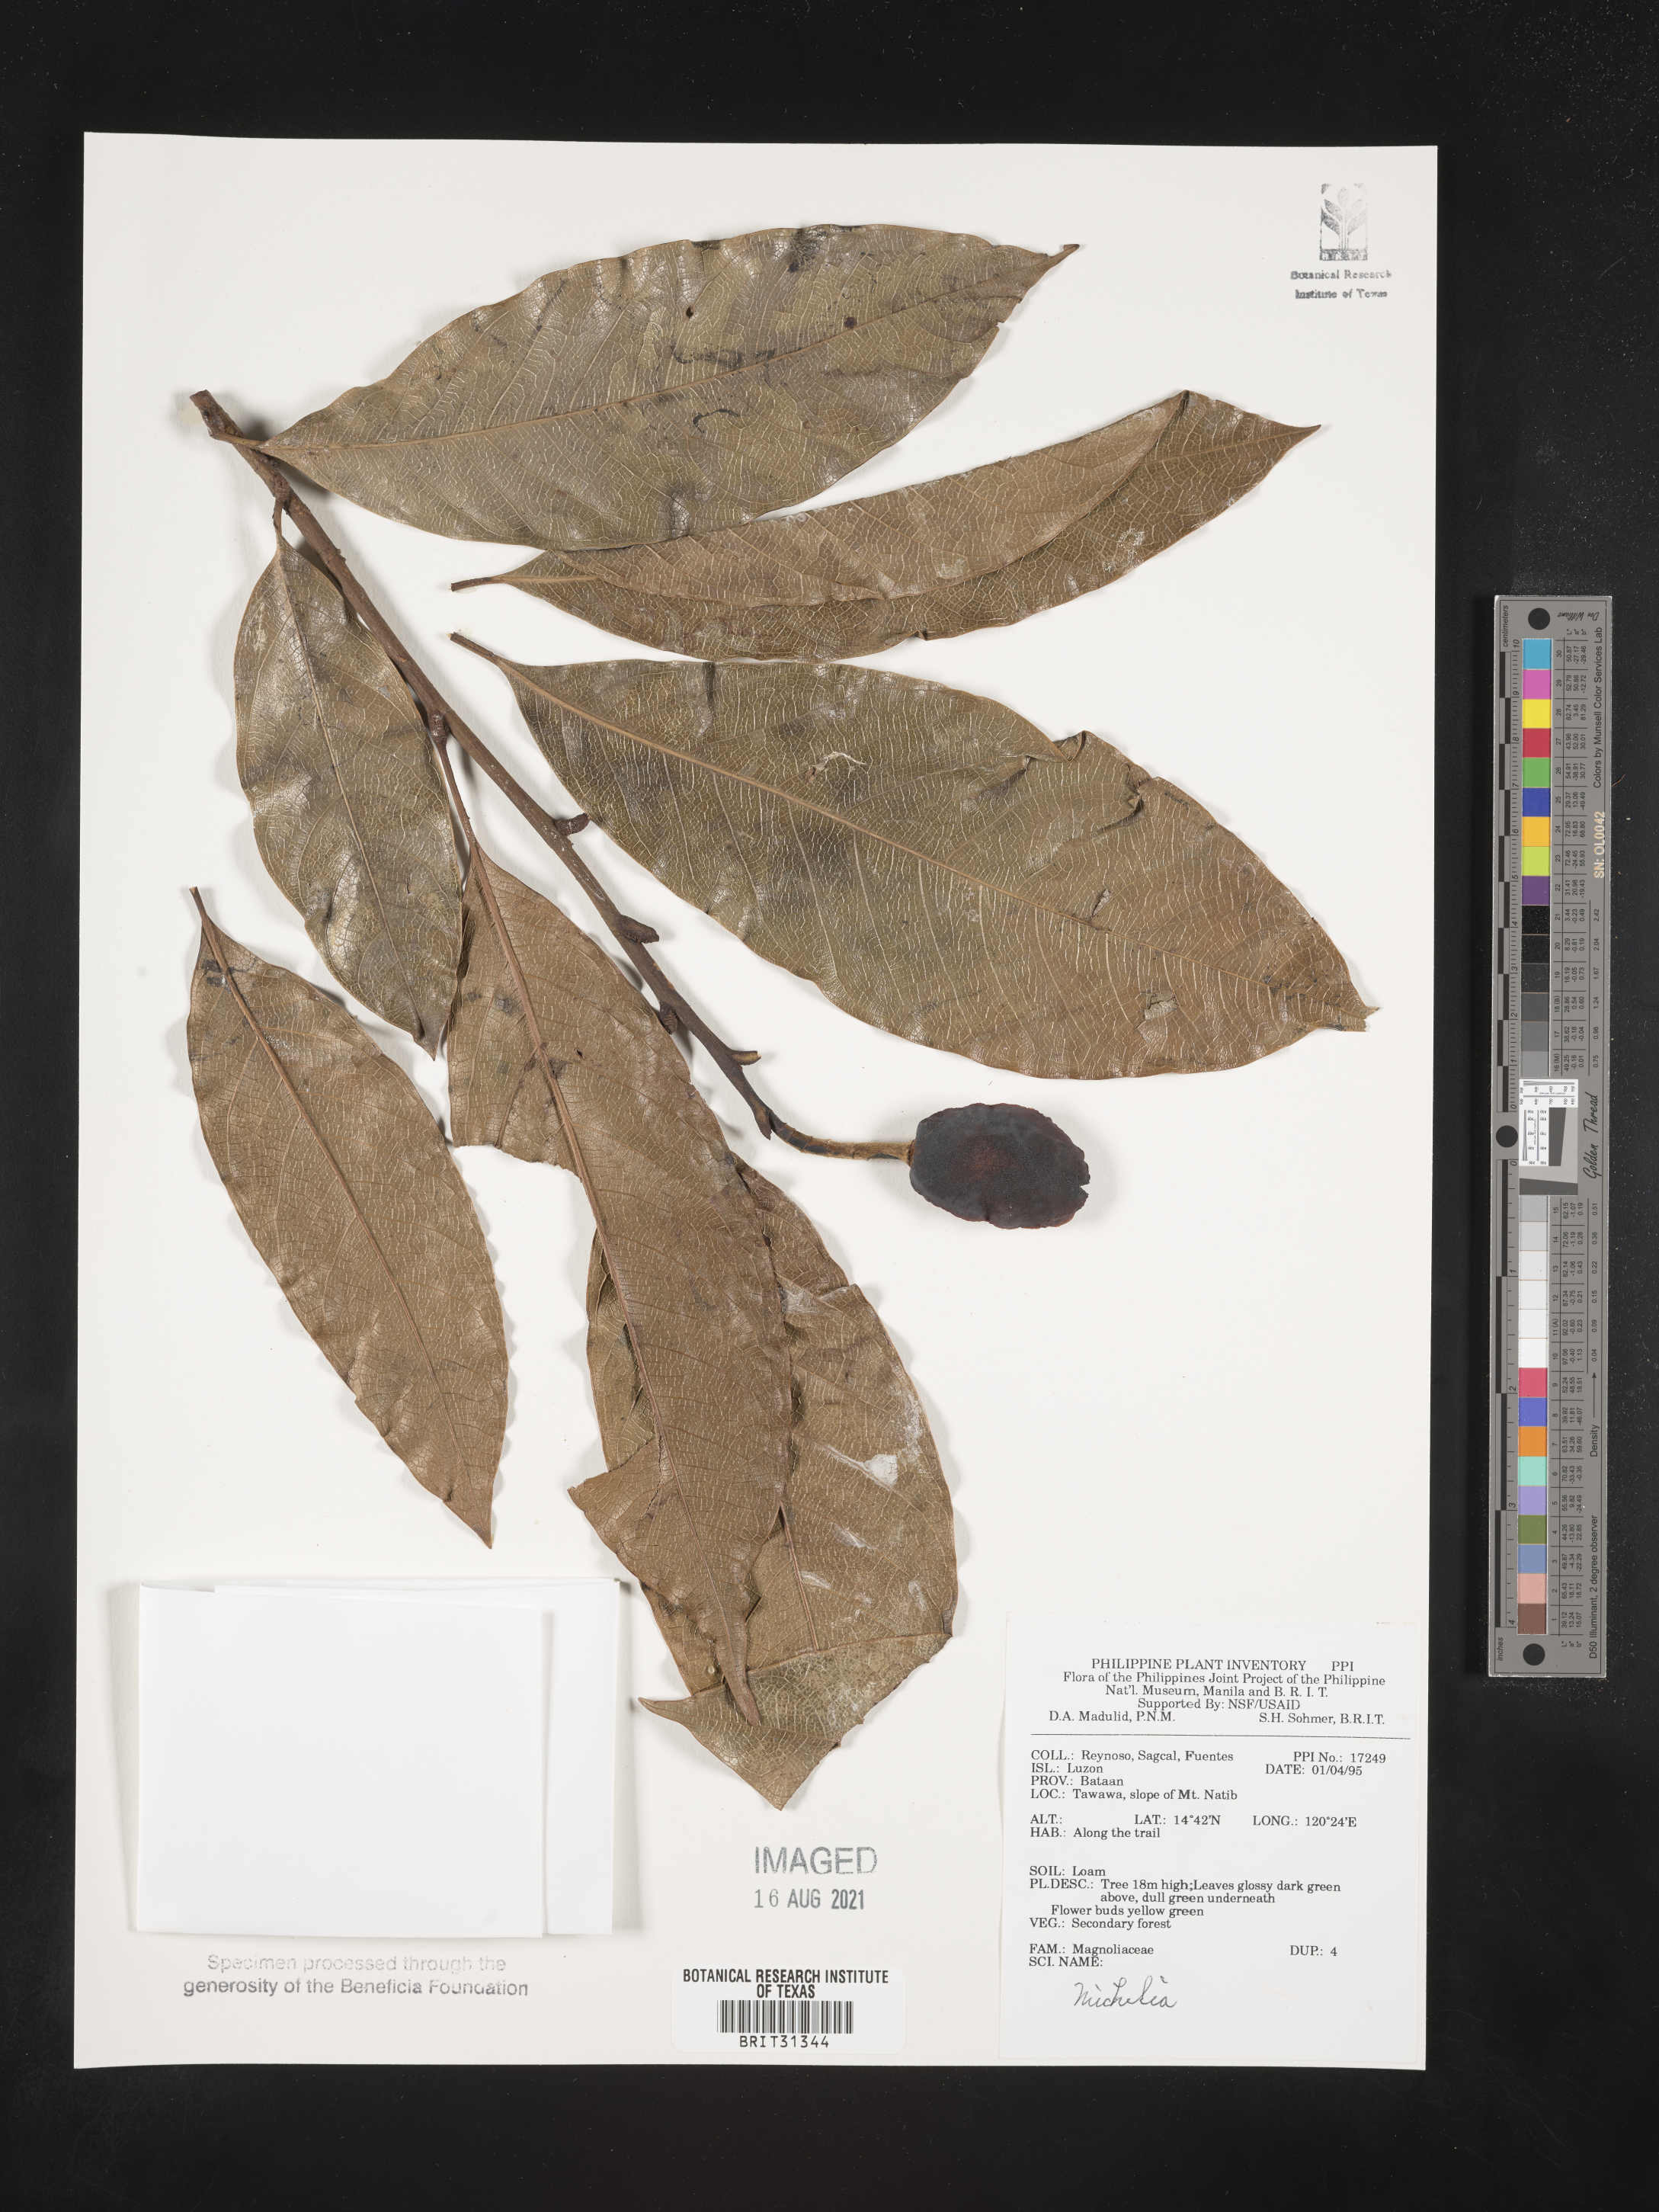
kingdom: Plantae
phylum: Tracheophyta
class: Magnoliopsida
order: Magnoliales
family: Magnoliaceae
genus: Michelia
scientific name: Michelia
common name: Michelia
